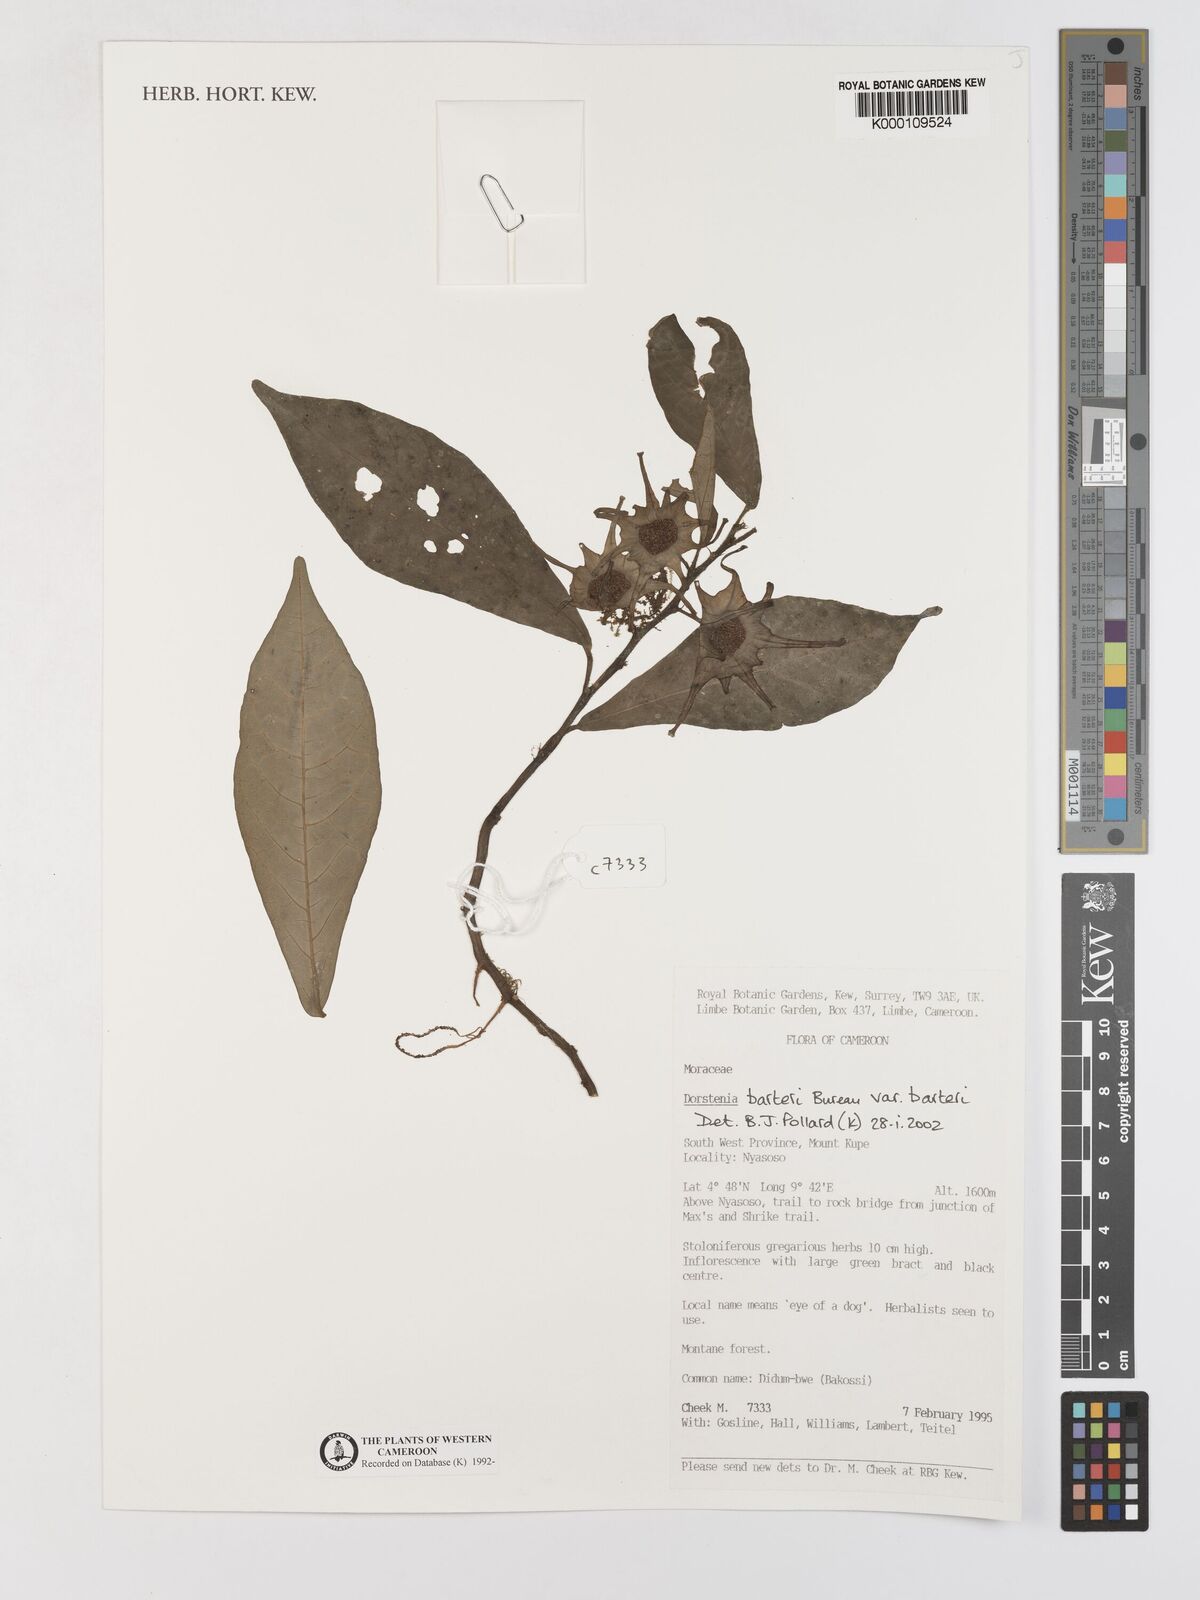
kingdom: Plantae
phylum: Tracheophyta
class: Magnoliopsida
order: Rosales
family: Moraceae
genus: Dorstenia
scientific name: Dorstenia barteri
